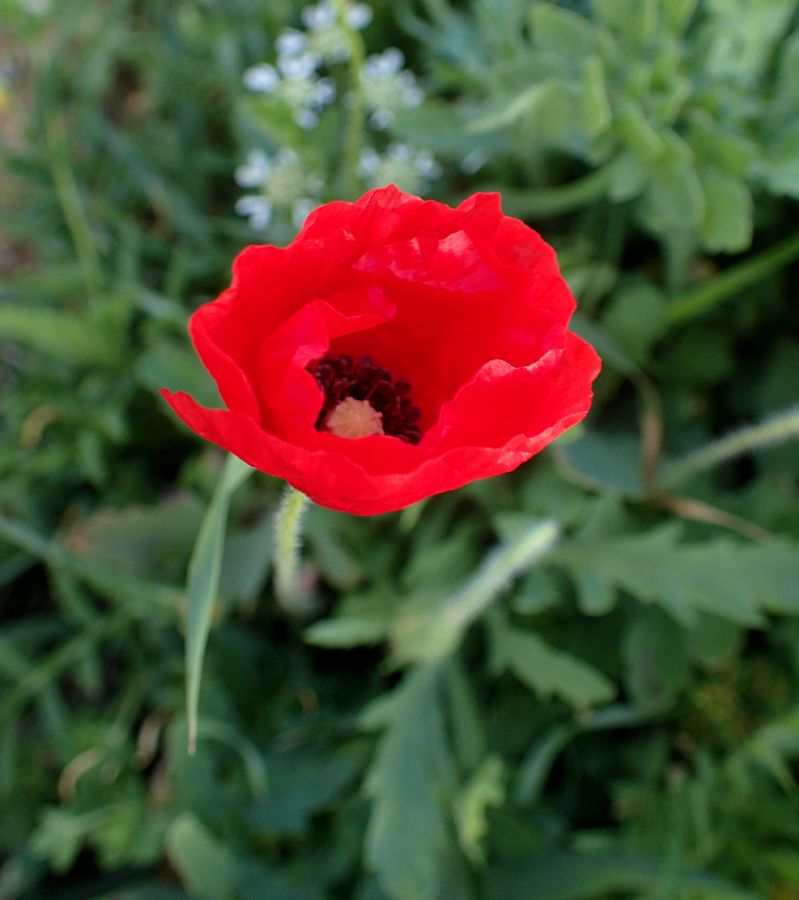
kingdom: Plantae
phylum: Tracheophyta
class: Magnoliopsida
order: Ranunculales
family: Papaveraceae
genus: Papaver
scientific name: Papaver rhoeas
